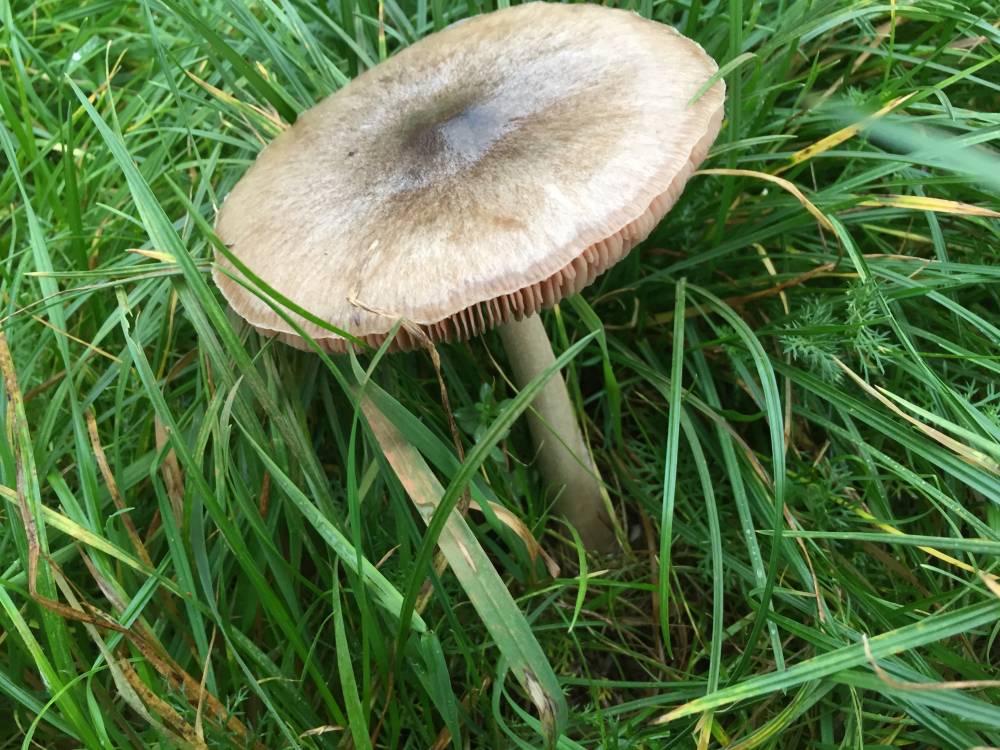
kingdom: Fungi
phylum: Basidiomycota
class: Agaricomycetes
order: Agaricales
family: Pluteaceae
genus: Volvopluteus
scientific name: Volvopluteus gloiocephalus
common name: høj posesvamp
